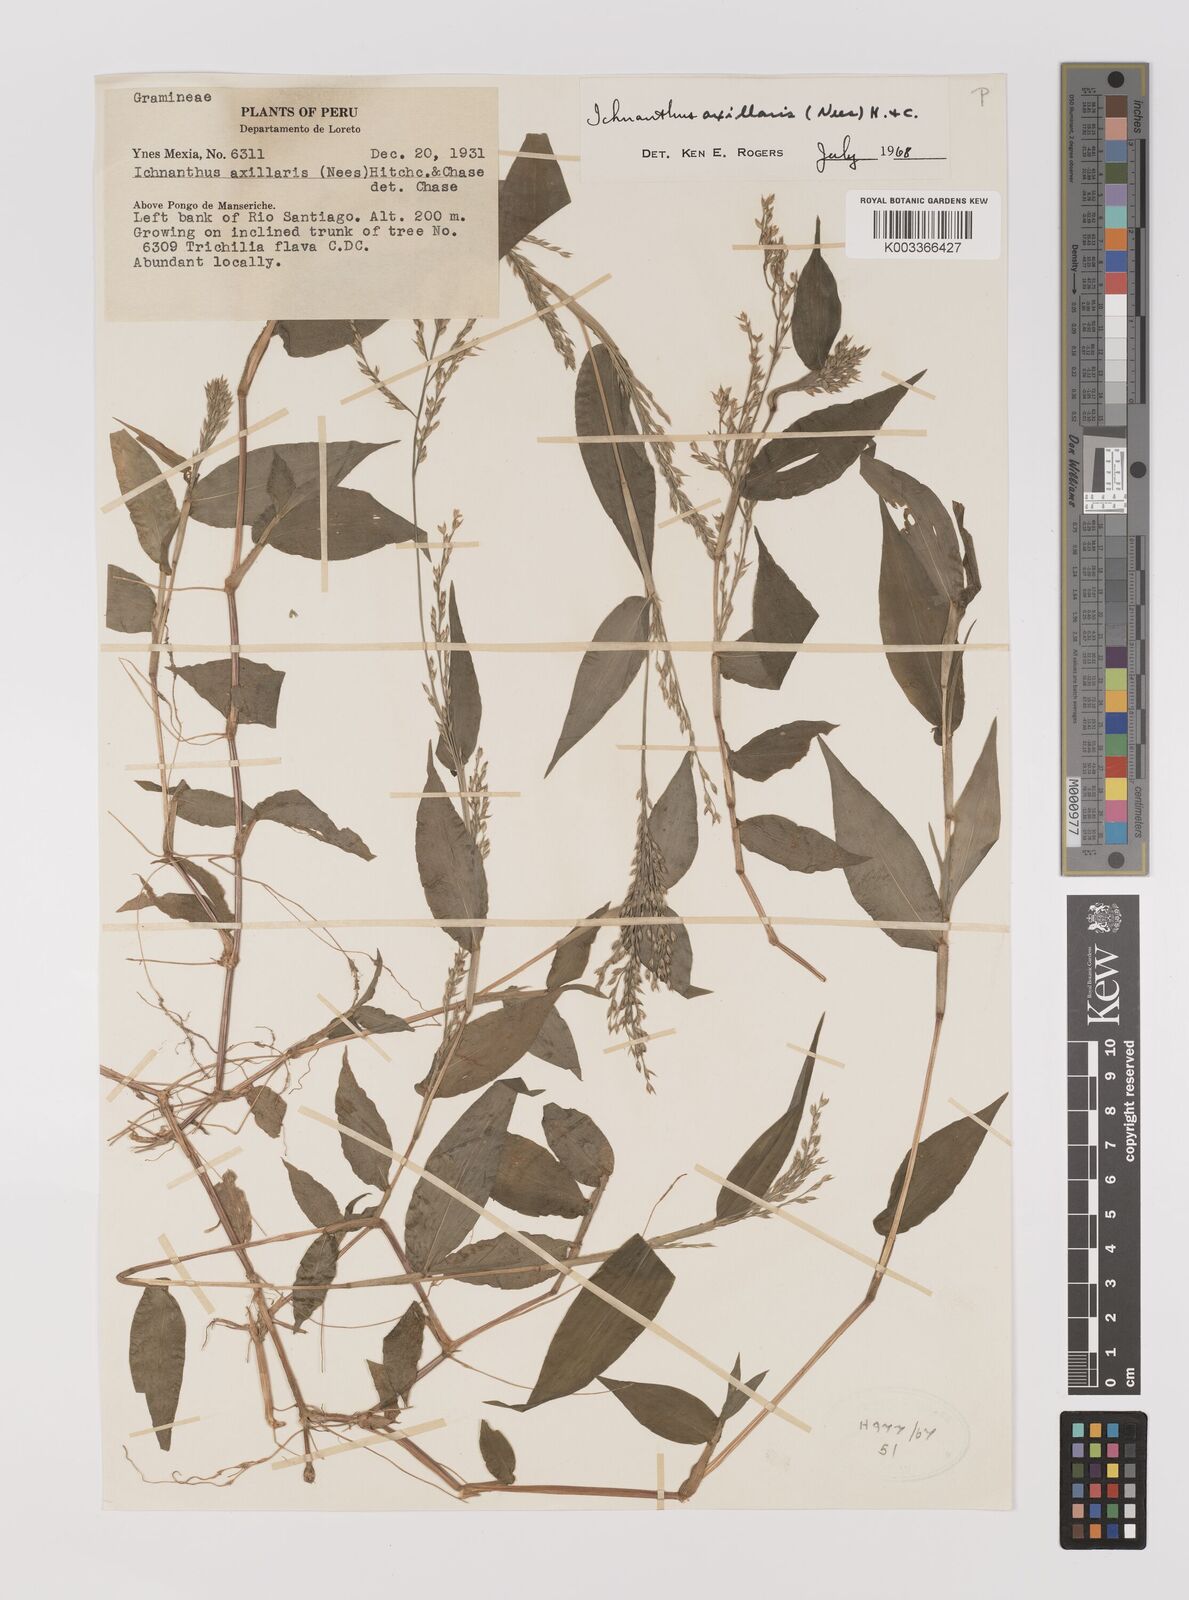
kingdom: Plantae
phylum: Tracheophyta
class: Liliopsida
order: Poales
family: Poaceae
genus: Ichnanthus
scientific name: Ichnanthus pallens
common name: Water grass
